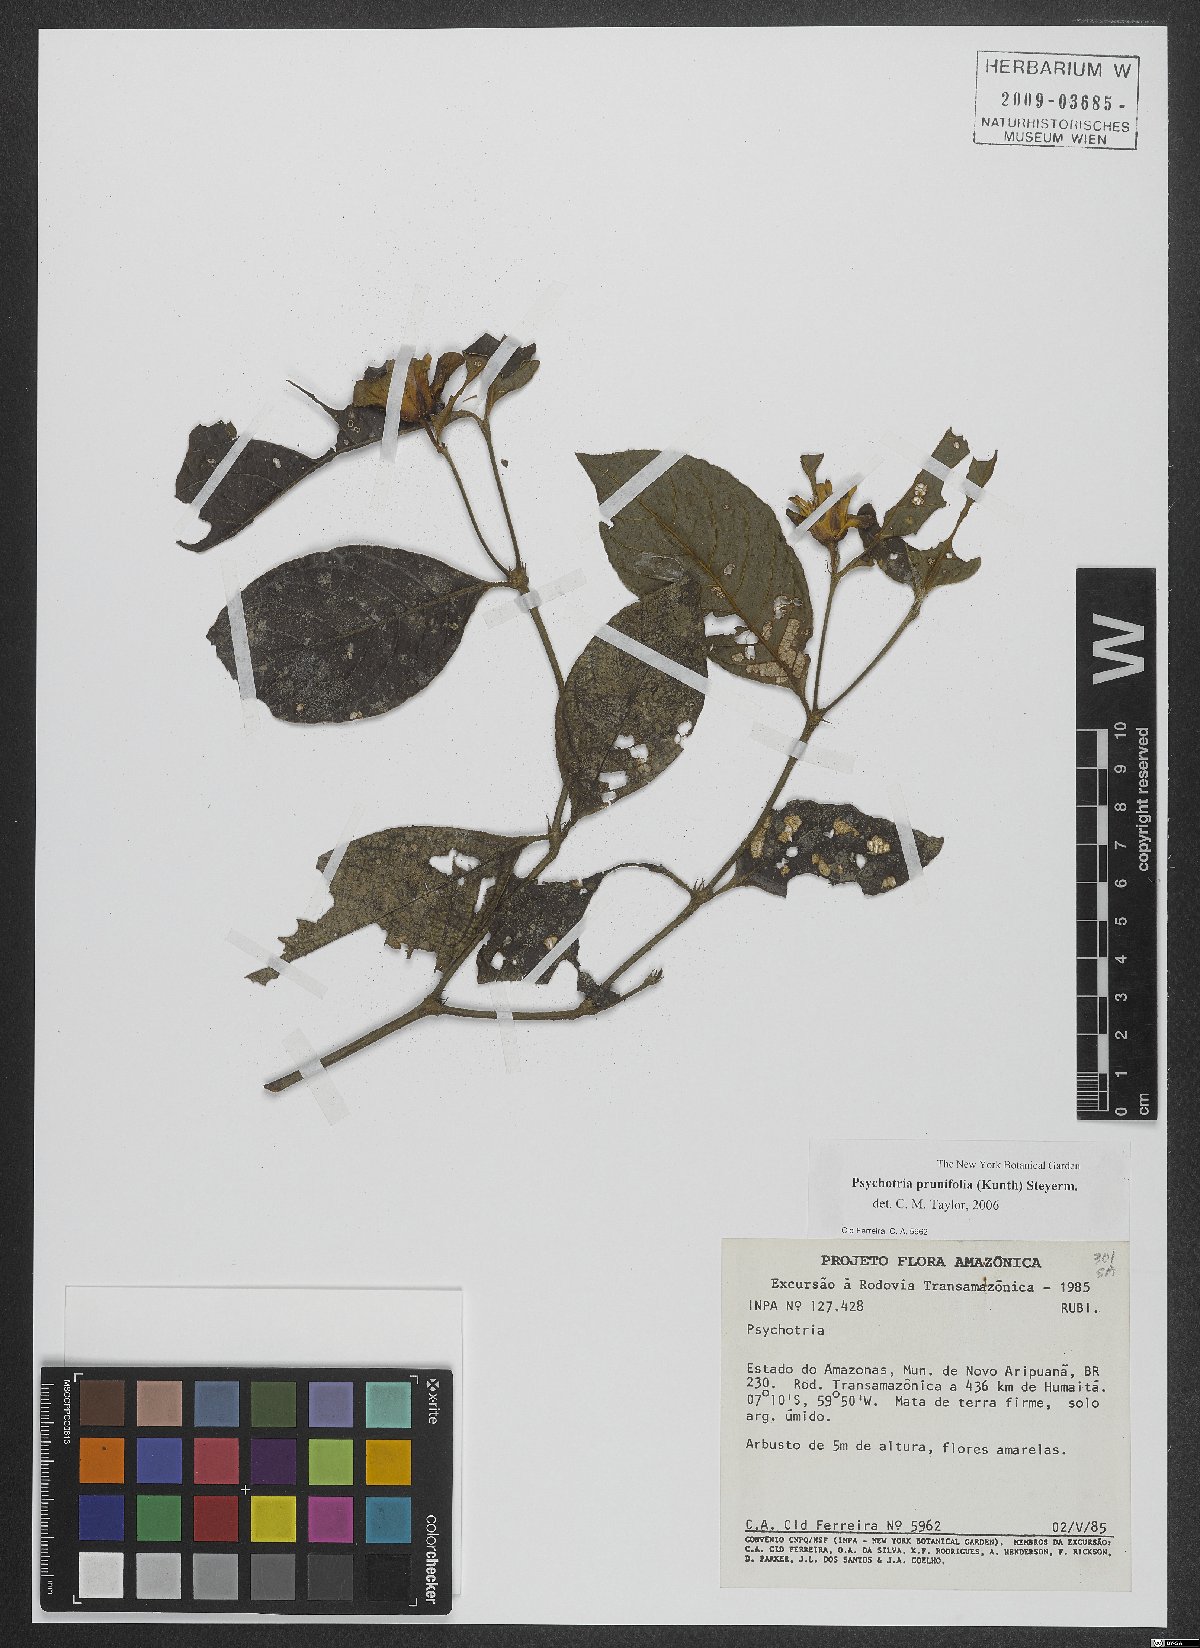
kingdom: Plantae
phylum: Tracheophyta
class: Magnoliopsida
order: Gentianales
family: Rubiaceae
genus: Palicourea
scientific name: Palicourea prunifolia
